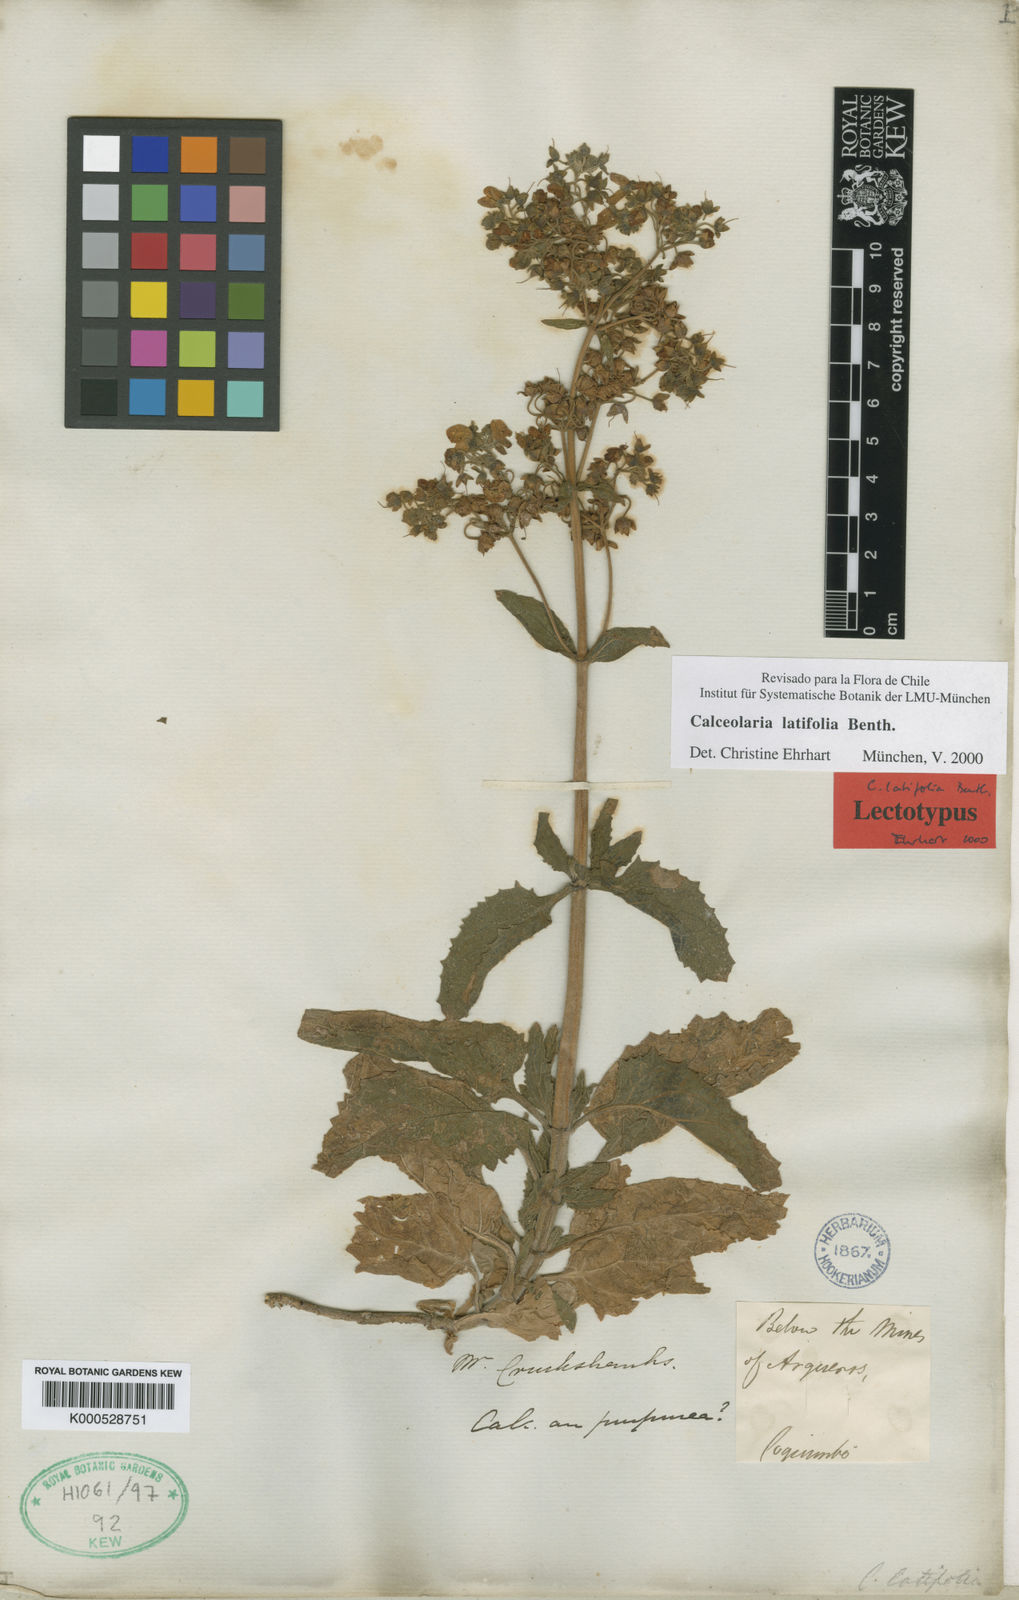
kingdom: Plantae
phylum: Tracheophyta
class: Magnoliopsida
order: Lamiales
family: Calceolariaceae
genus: Calceolaria
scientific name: Calceolaria latifolia
